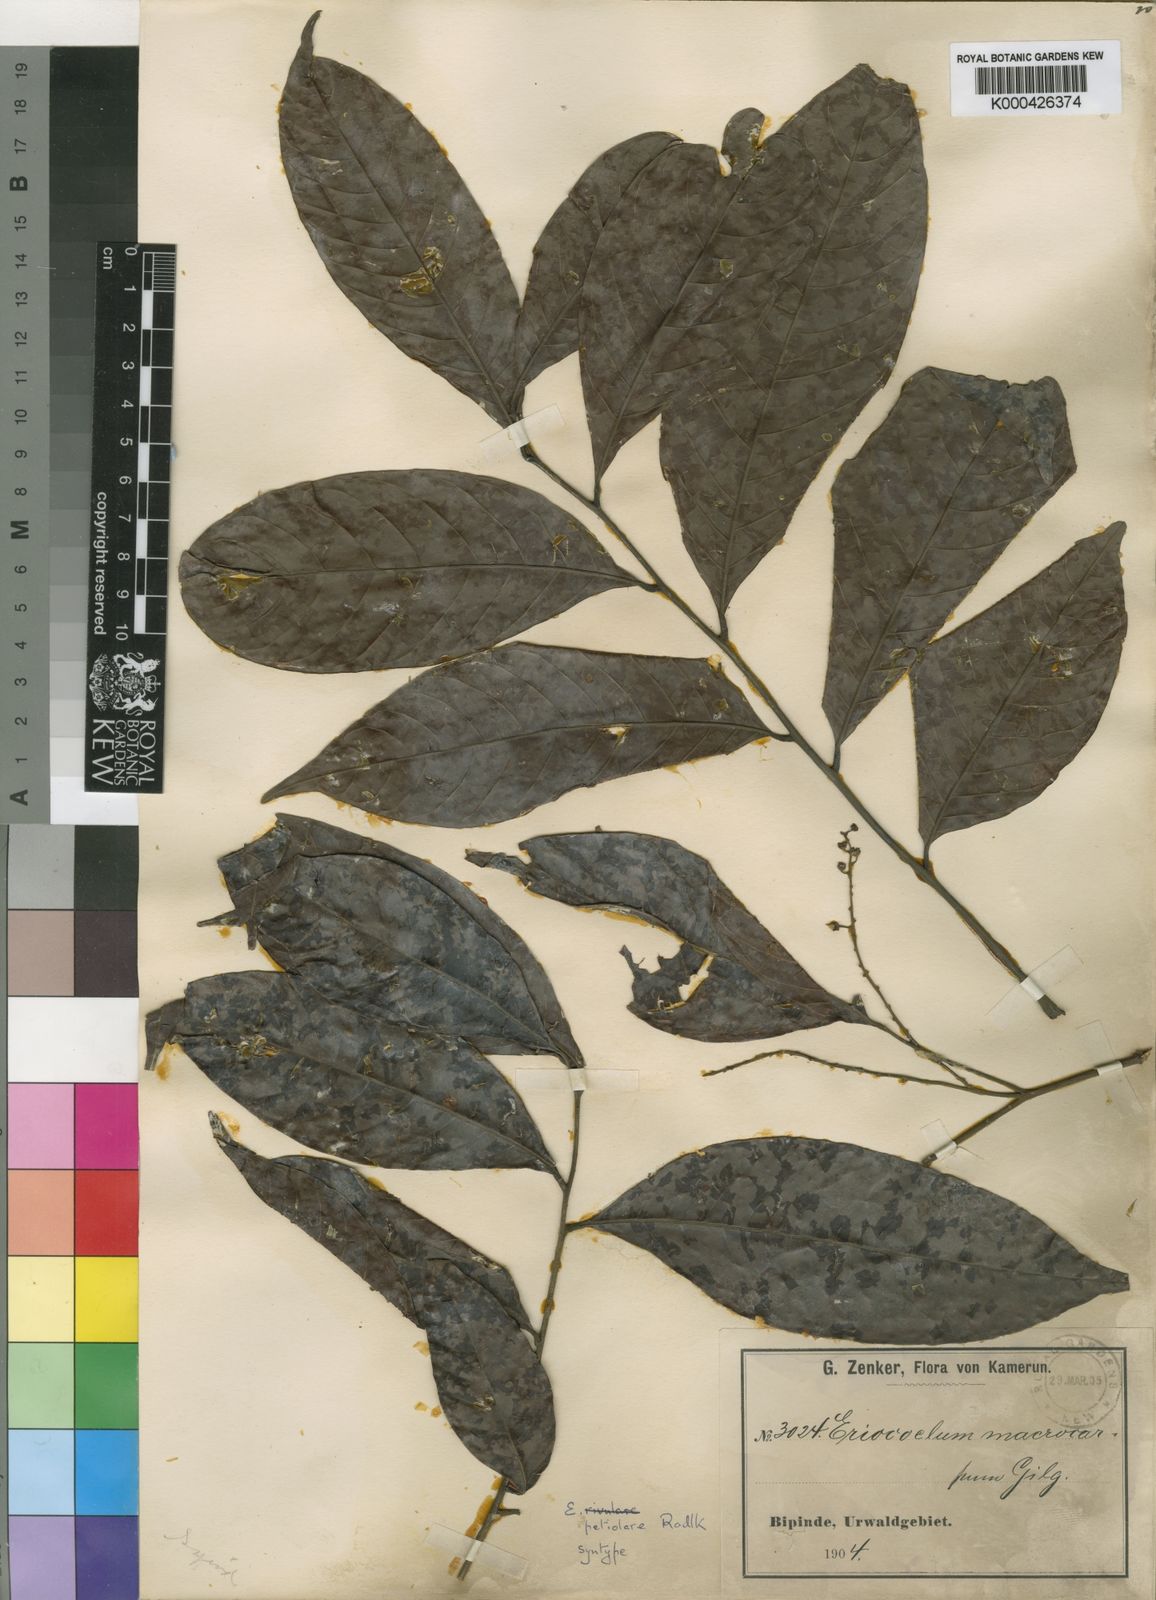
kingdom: Plantae
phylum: Tracheophyta
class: Magnoliopsida
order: Sapindales
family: Sapindaceae
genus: Eriocoelum
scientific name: Eriocoelum petiolare
